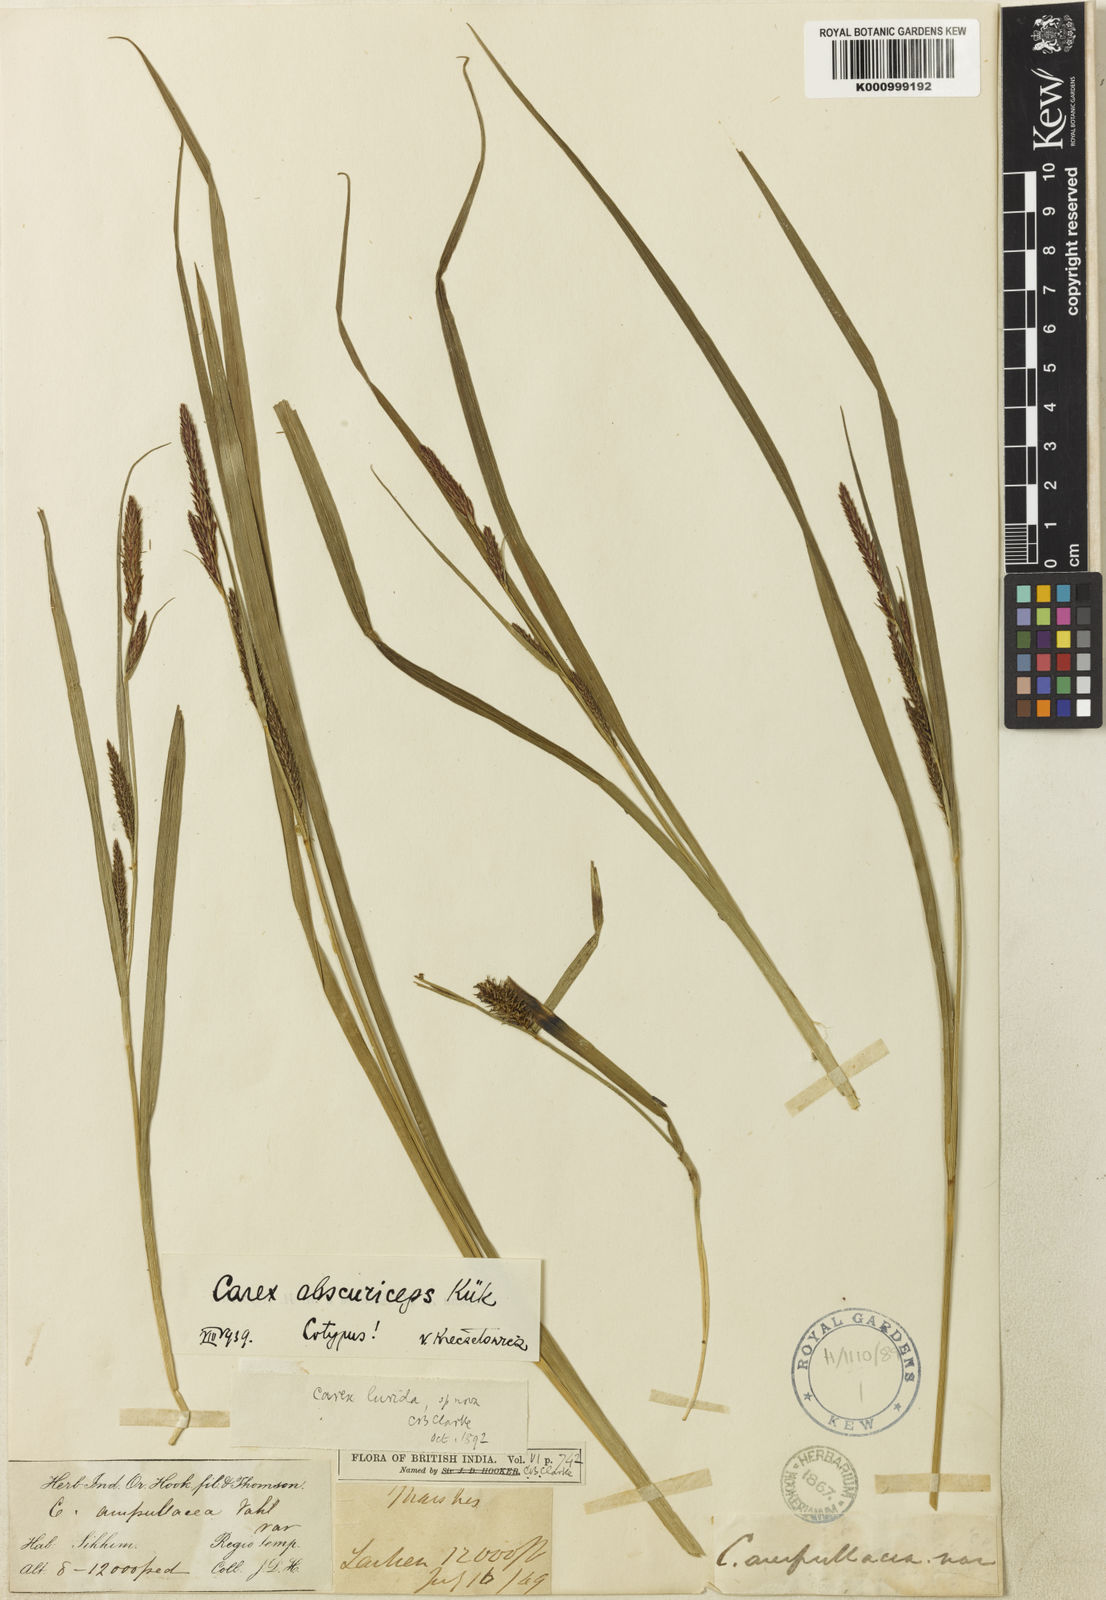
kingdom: Plantae
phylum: Tracheophyta
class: Liliopsida
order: Poales
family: Cyperaceae
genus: Carex
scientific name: Carex
